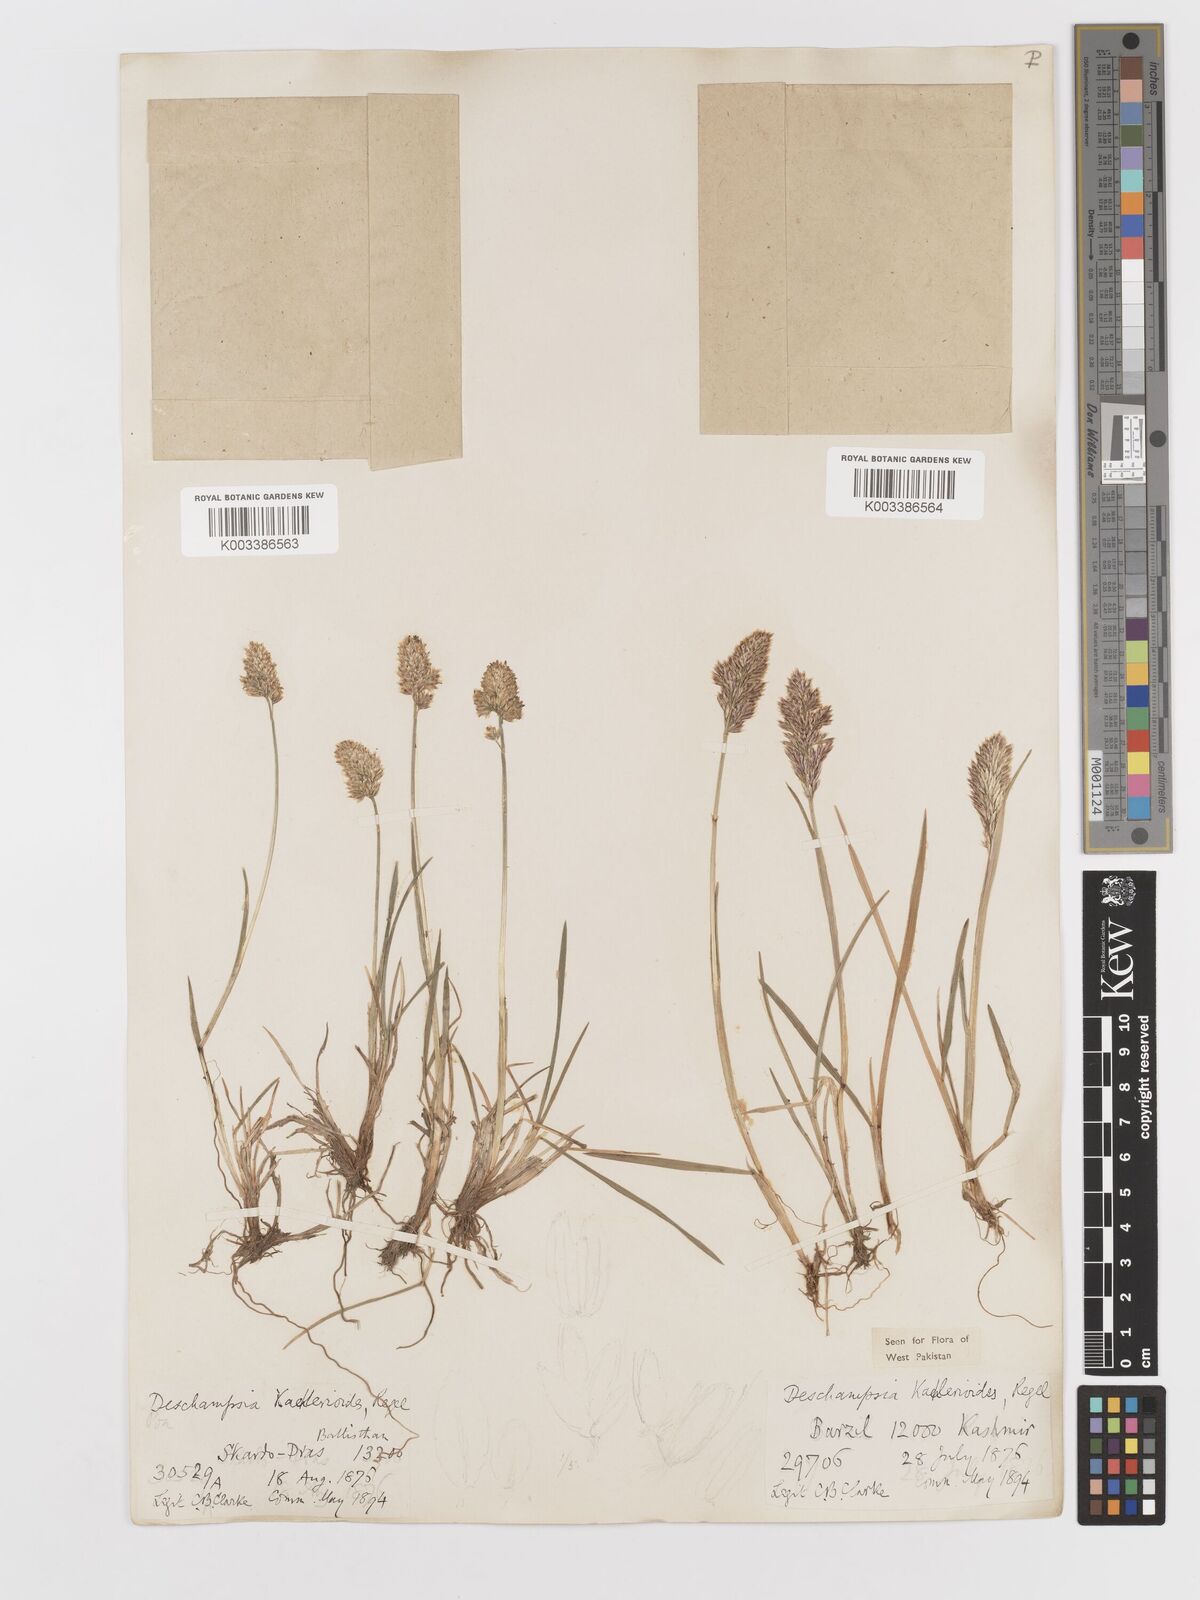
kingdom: Plantae
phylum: Tracheophyta
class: Liliopsida
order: Poales
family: Poaceae
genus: Deschampsia
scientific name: Deschampsia koelerioides
